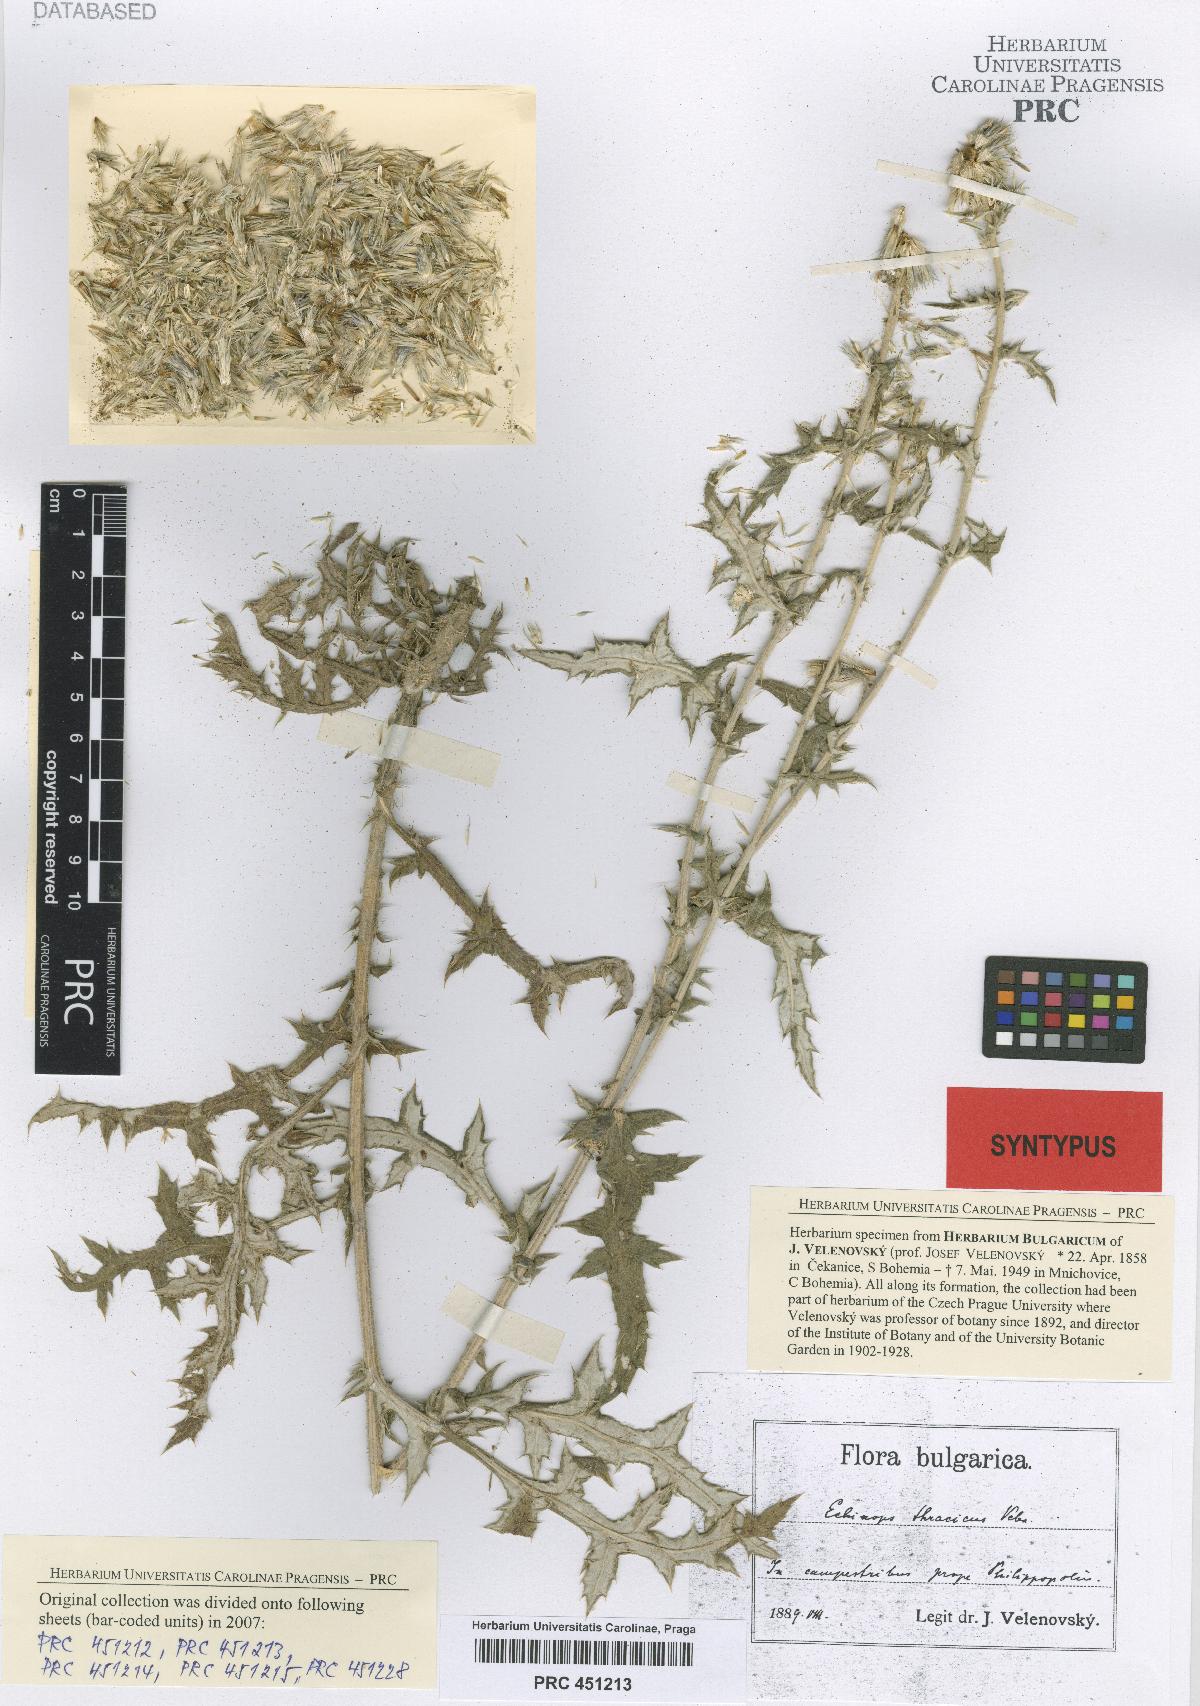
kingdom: Plantae
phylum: Tracheophyta
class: Magnoliopsida
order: Asterales
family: Asteraceae
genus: Echinops
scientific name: Echinops ritro
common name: Globe thistle
